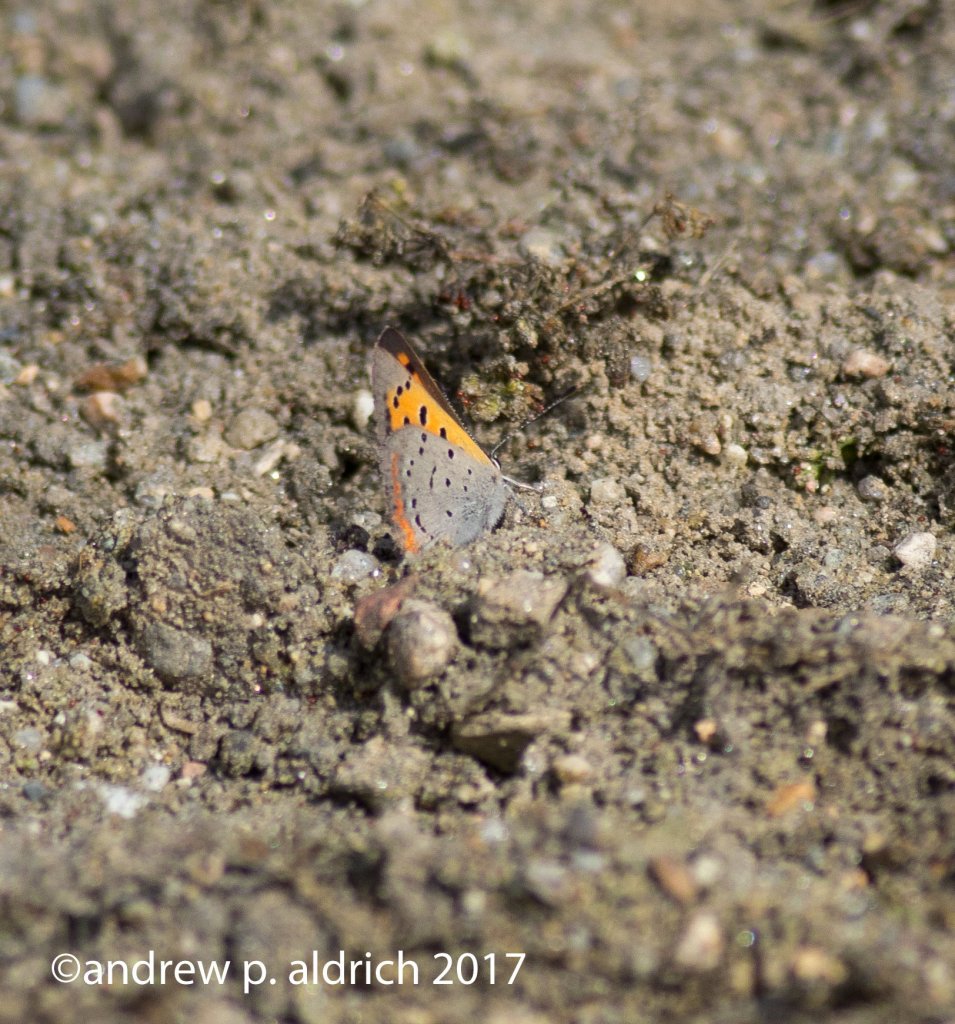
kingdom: Animalia
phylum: Arthropoda
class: Insecta
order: Lepidoptera
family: Lycaenidae
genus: Lycaena
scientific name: Lycaena phlaeas
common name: American Copper
